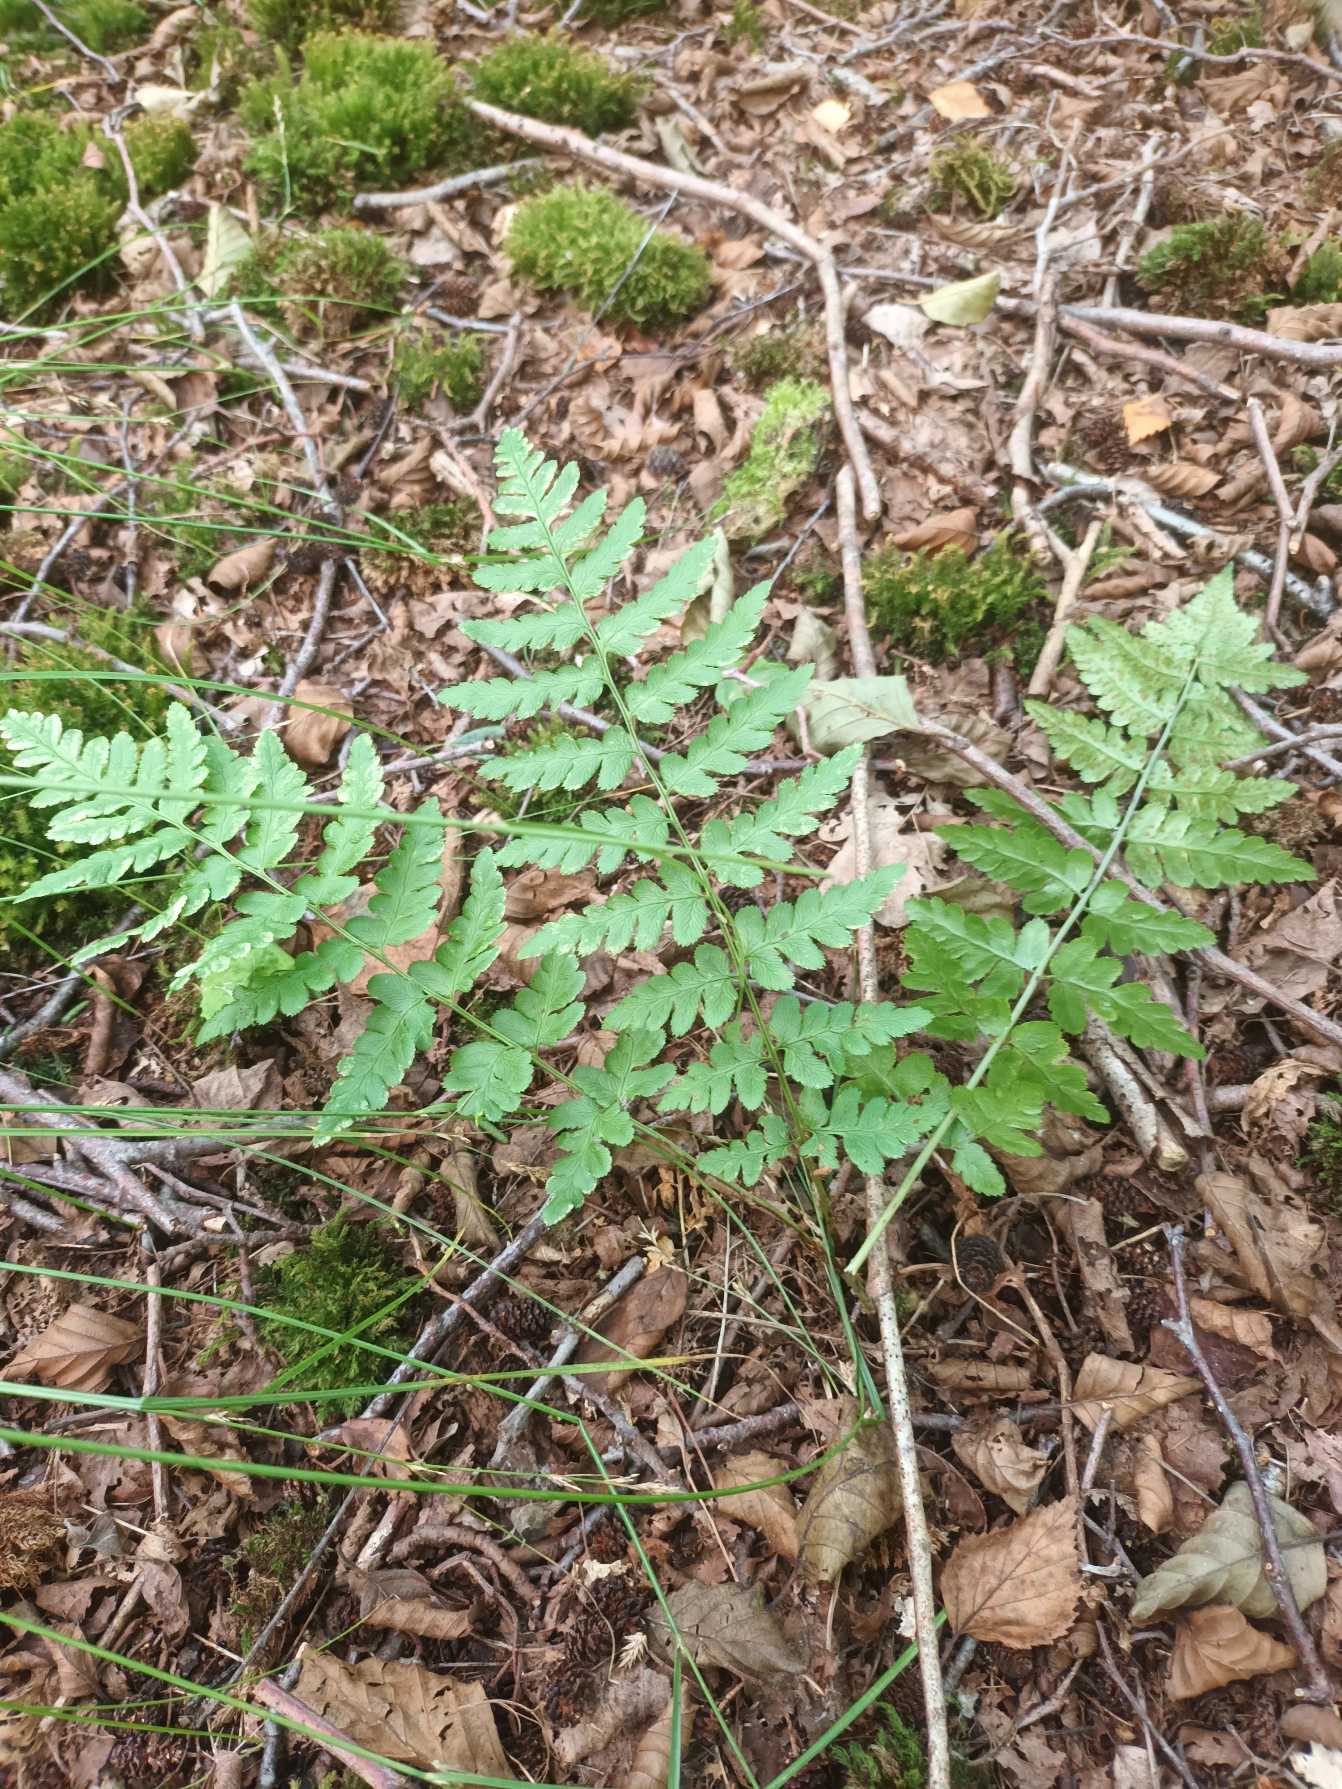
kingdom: Plantae
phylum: Tracheophyta
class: Polypodiopsida
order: Polypodiales
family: Dryopteridaceae
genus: Dryopteris
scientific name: Dryopteris cristata
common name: Butfinnet mangeløv
